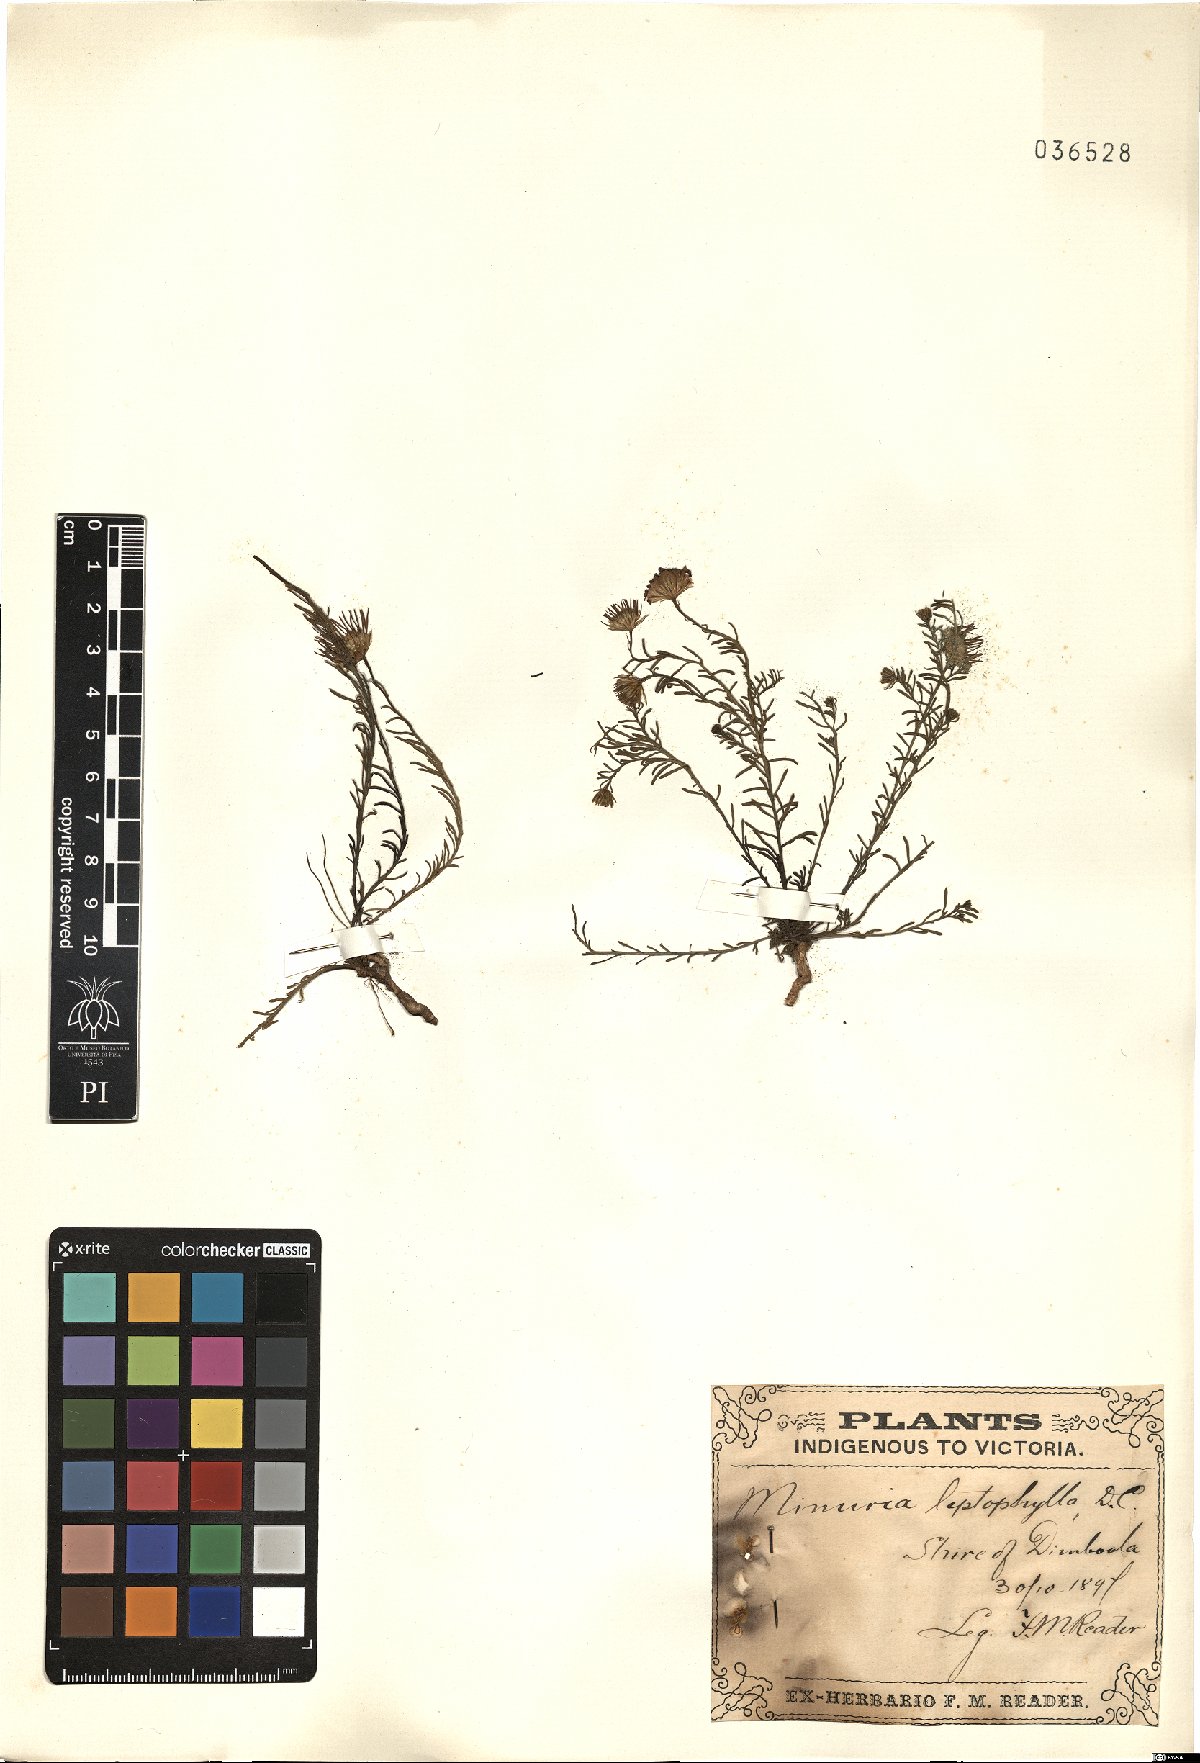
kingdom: Plantae
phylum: Tracheophyta
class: Magnoliopsida
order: Asterales
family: Asteraceae
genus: Minuria
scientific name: Minuria
